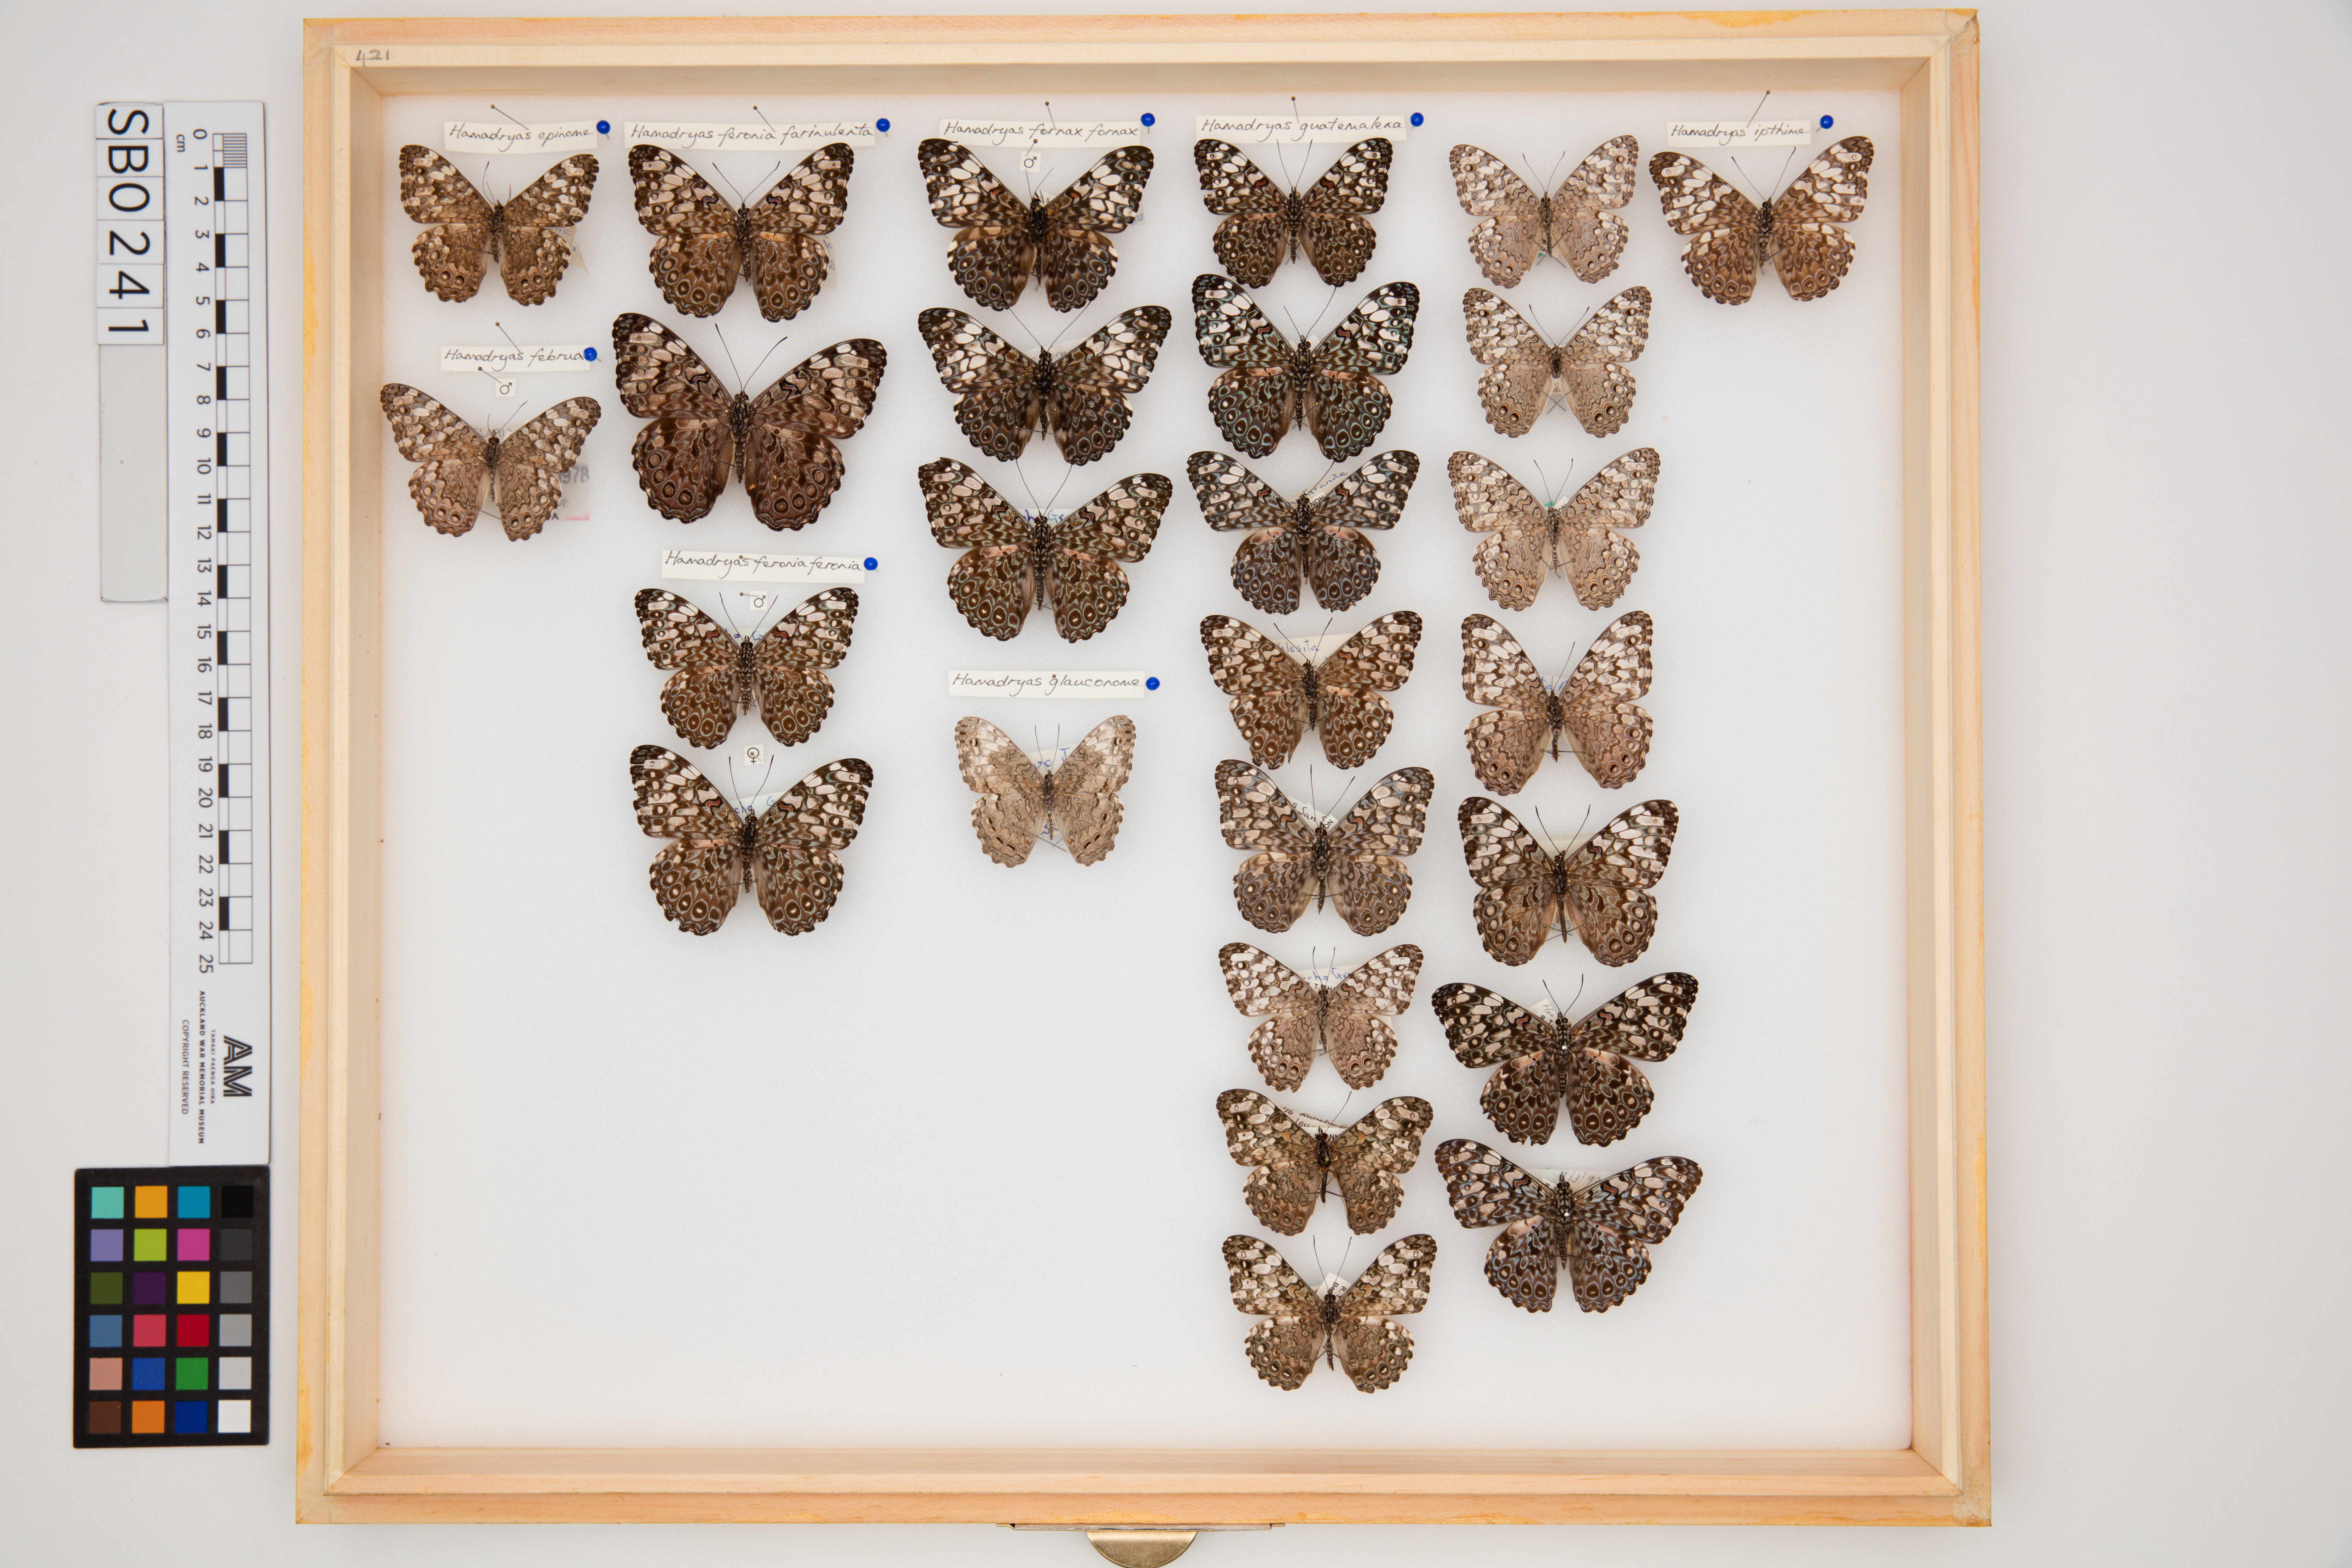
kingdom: Animalia
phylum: Arthropoda
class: Insecta
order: Lepidoptera
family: Nymphalidae
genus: Hamadryas
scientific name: Hamadryas guatemalena
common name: Guatemalan cracker
